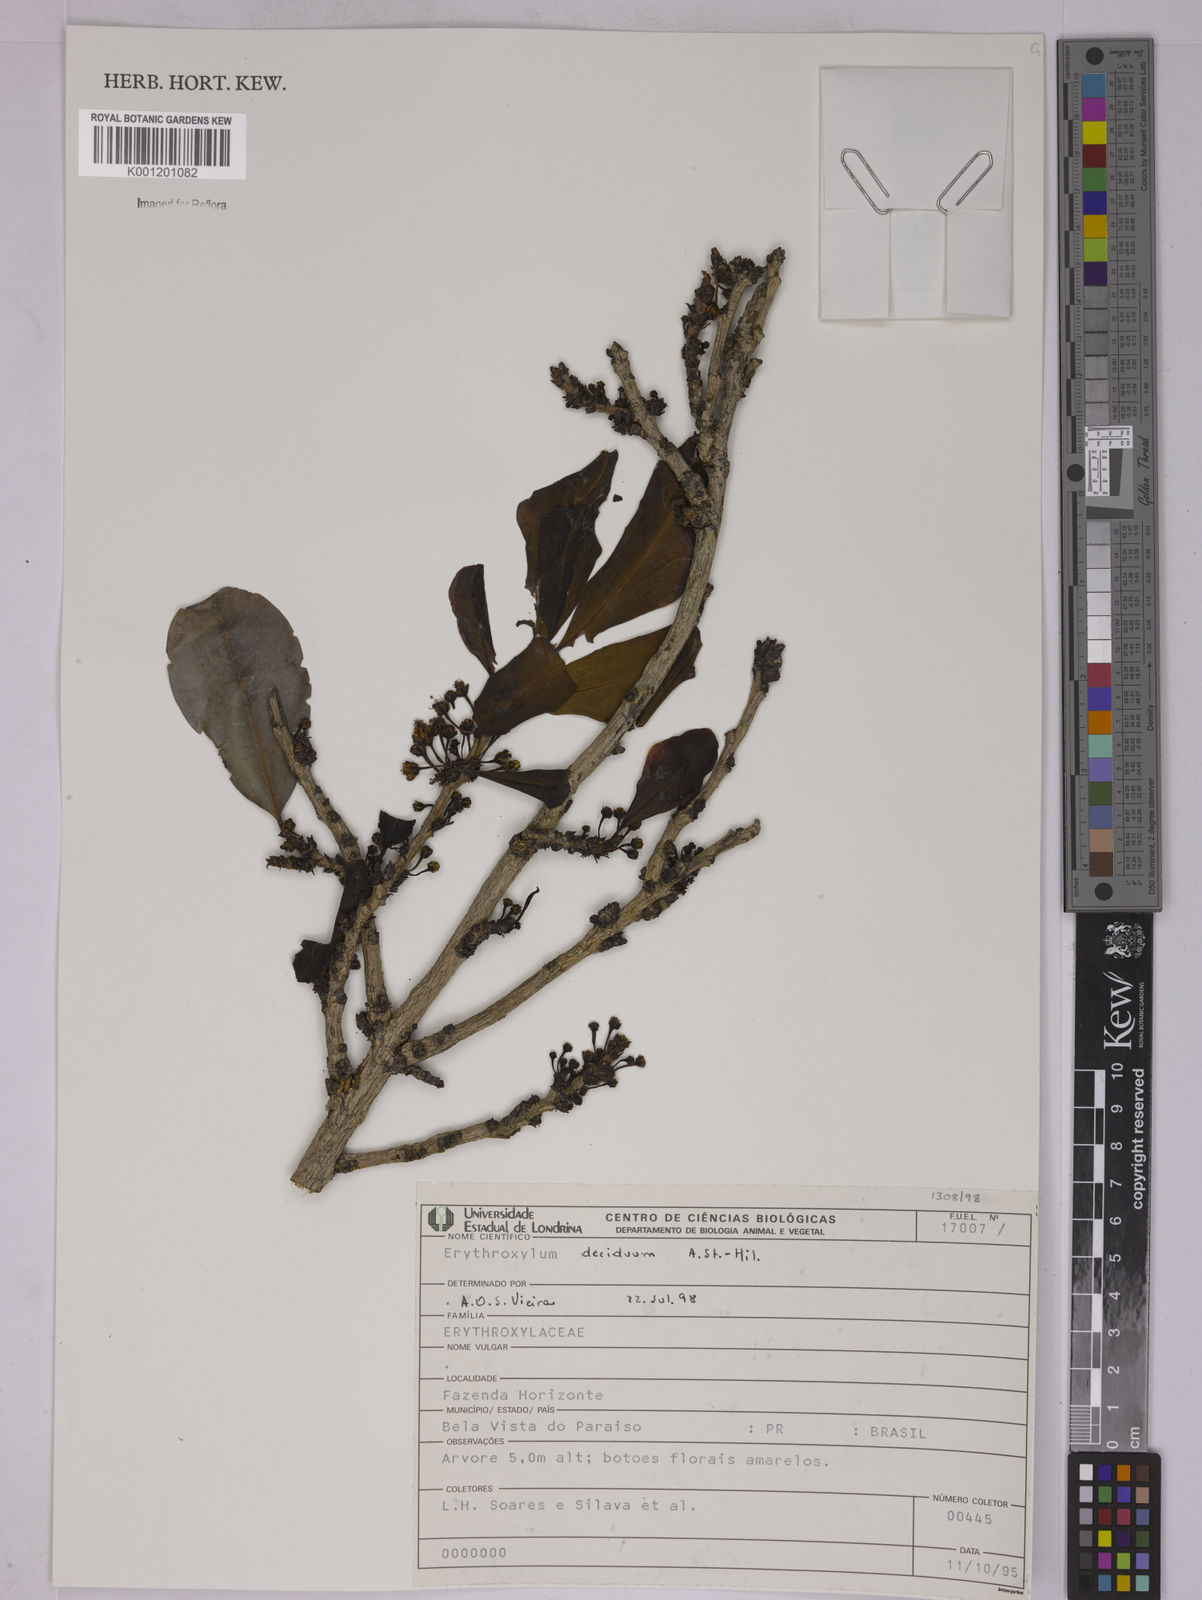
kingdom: Plantae
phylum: Tracheophyta
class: Magnoliopsida
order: Malpighiales
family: Erythroxylaceae
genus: Erythroxylum
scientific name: Erythroxylum deciduum
